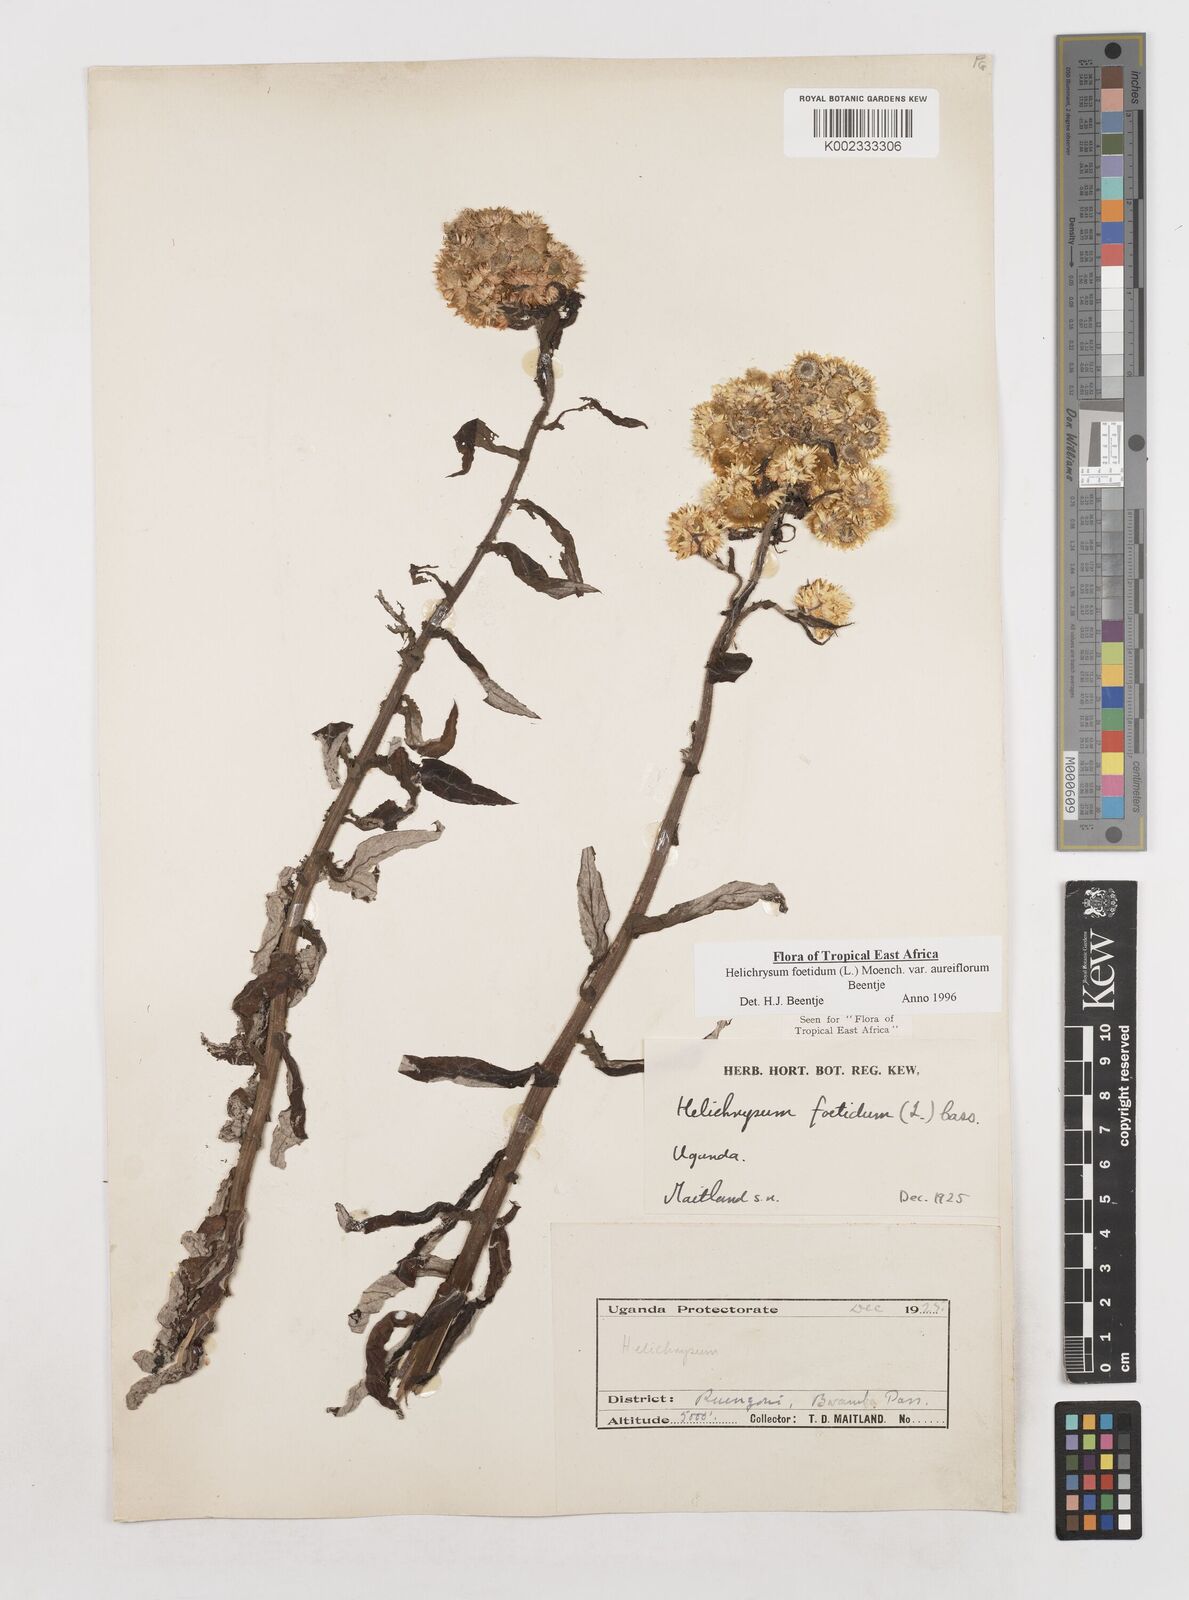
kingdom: Plantae
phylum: Tracheophyta
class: Magnoliopsida
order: Asterales
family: Asteraceae
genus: Helichrysum
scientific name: Helichrysum foetidum
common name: Stinking everlasting
